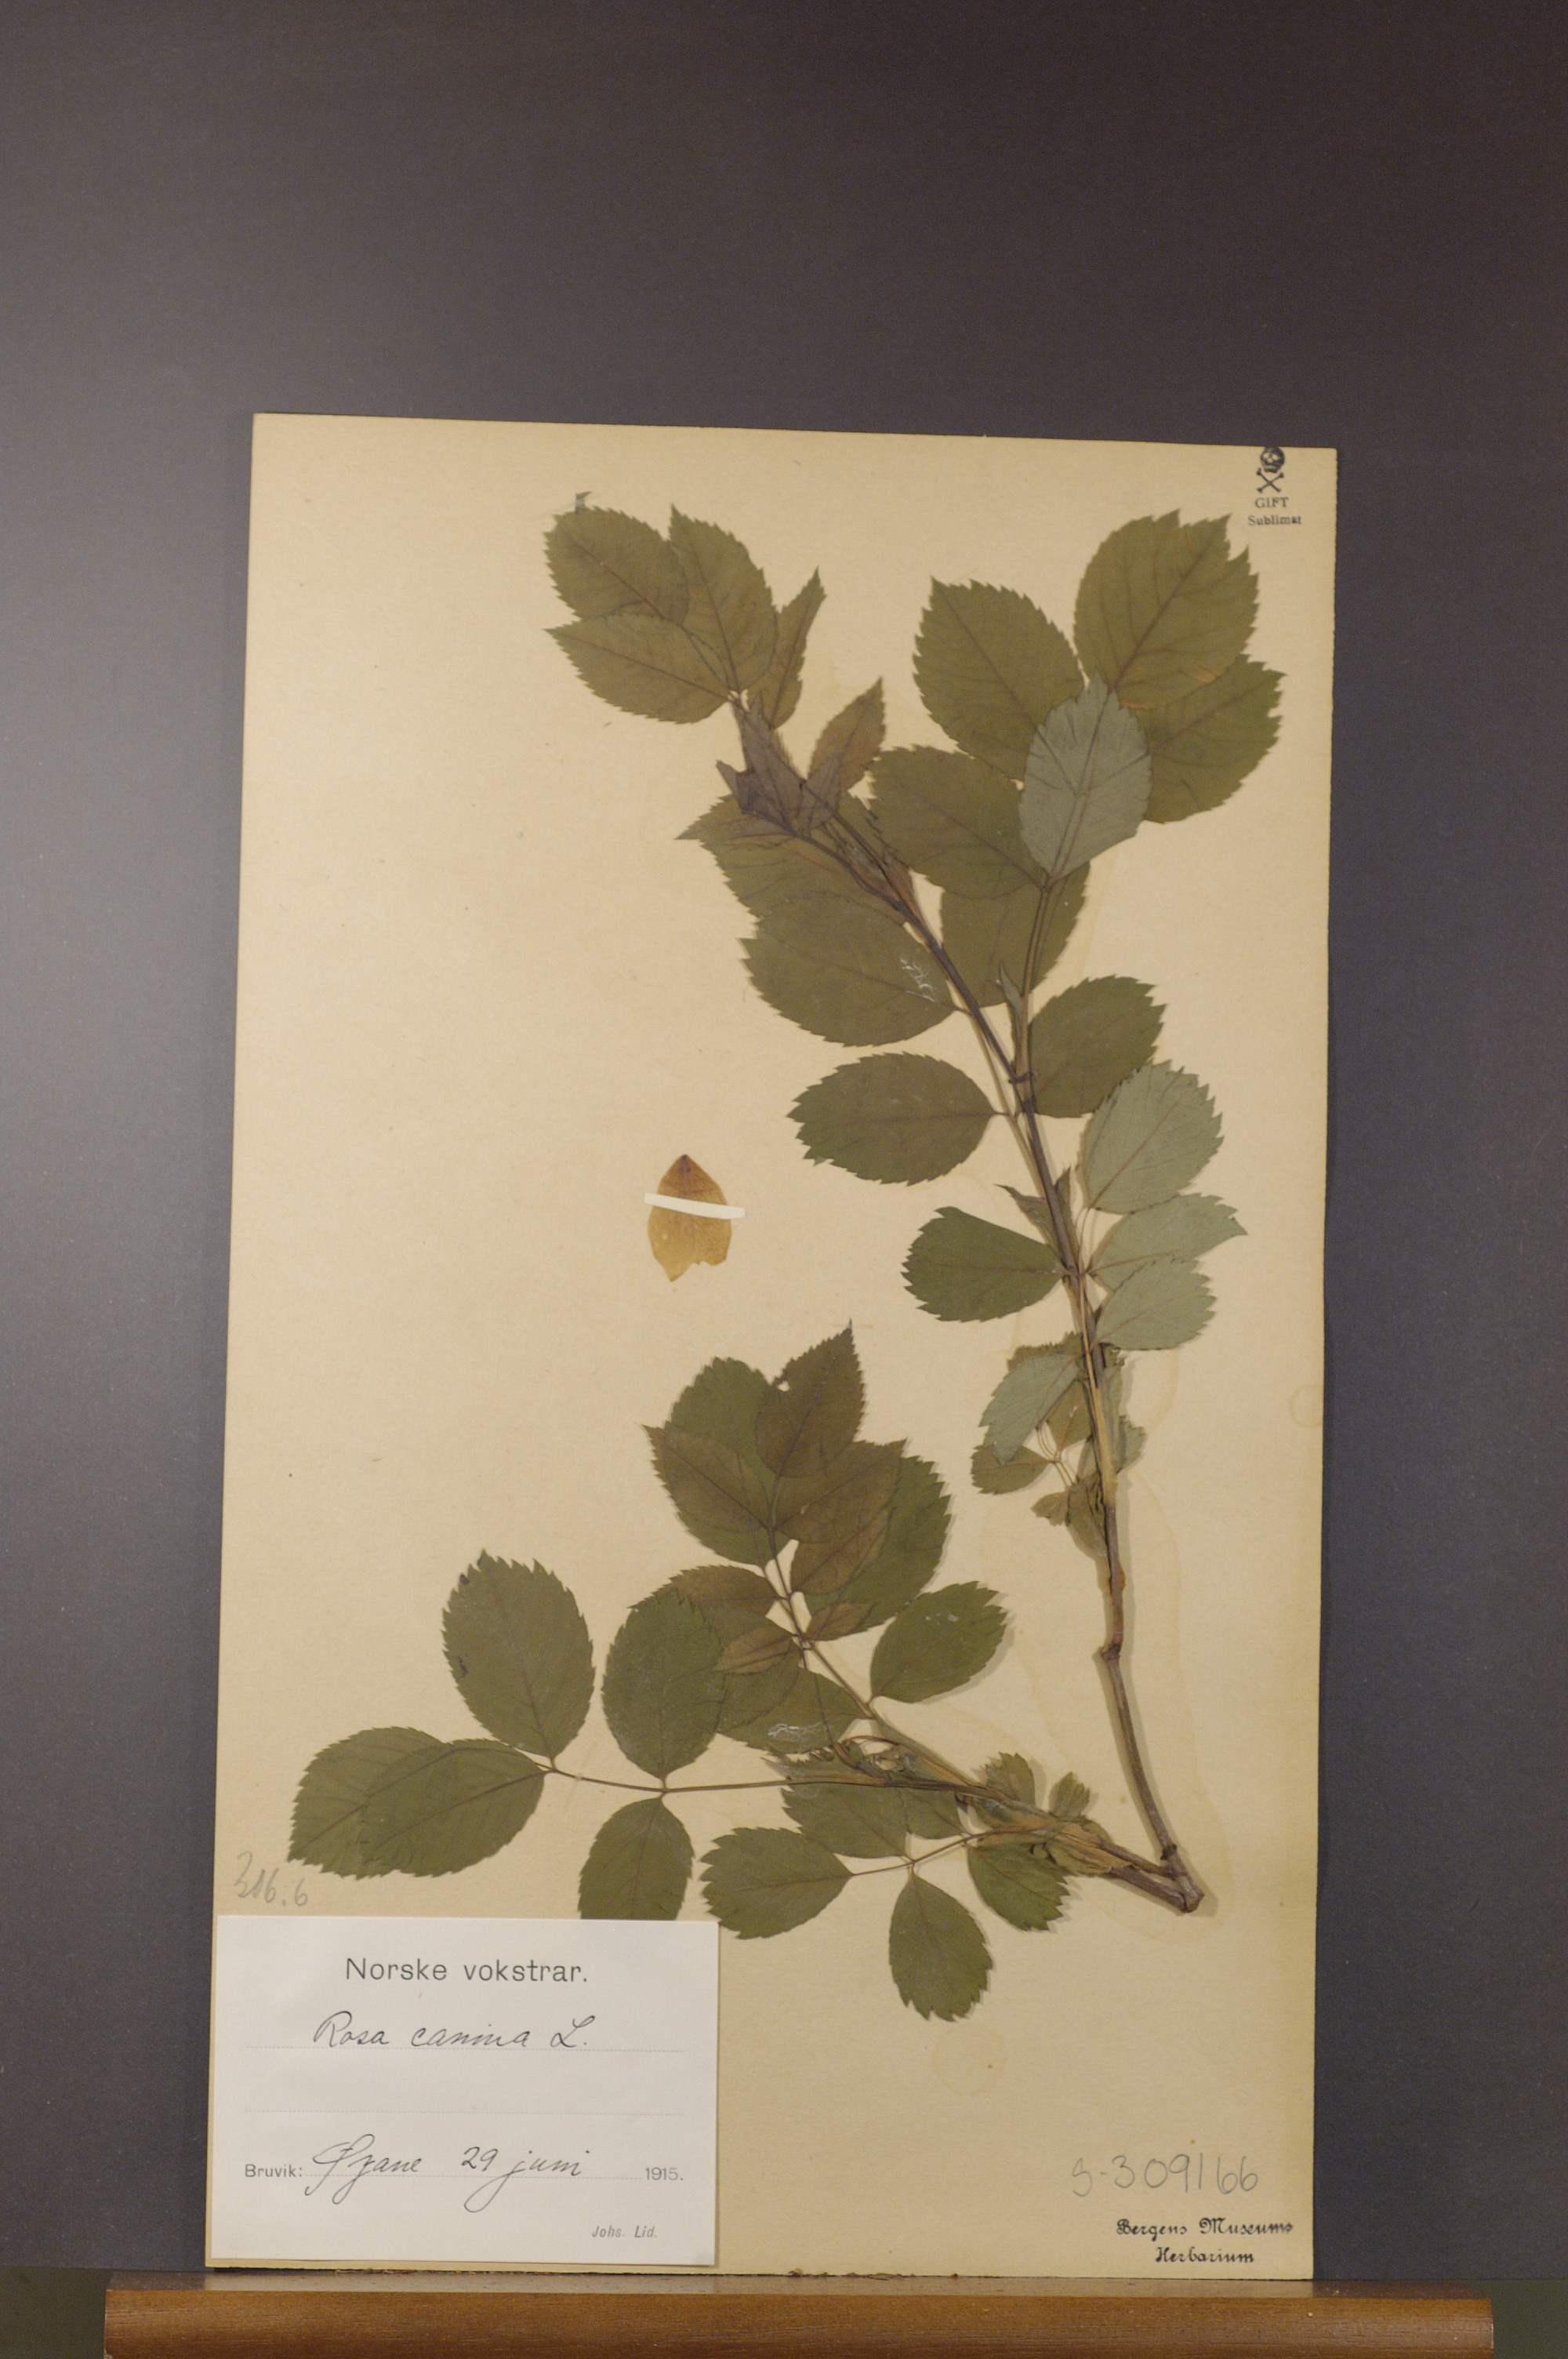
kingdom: Plantae
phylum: Tracheophyta
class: Magnoliopsida
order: Rosales
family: Rosaceae
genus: Rosa
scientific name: Rosa canina
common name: Dog rose
